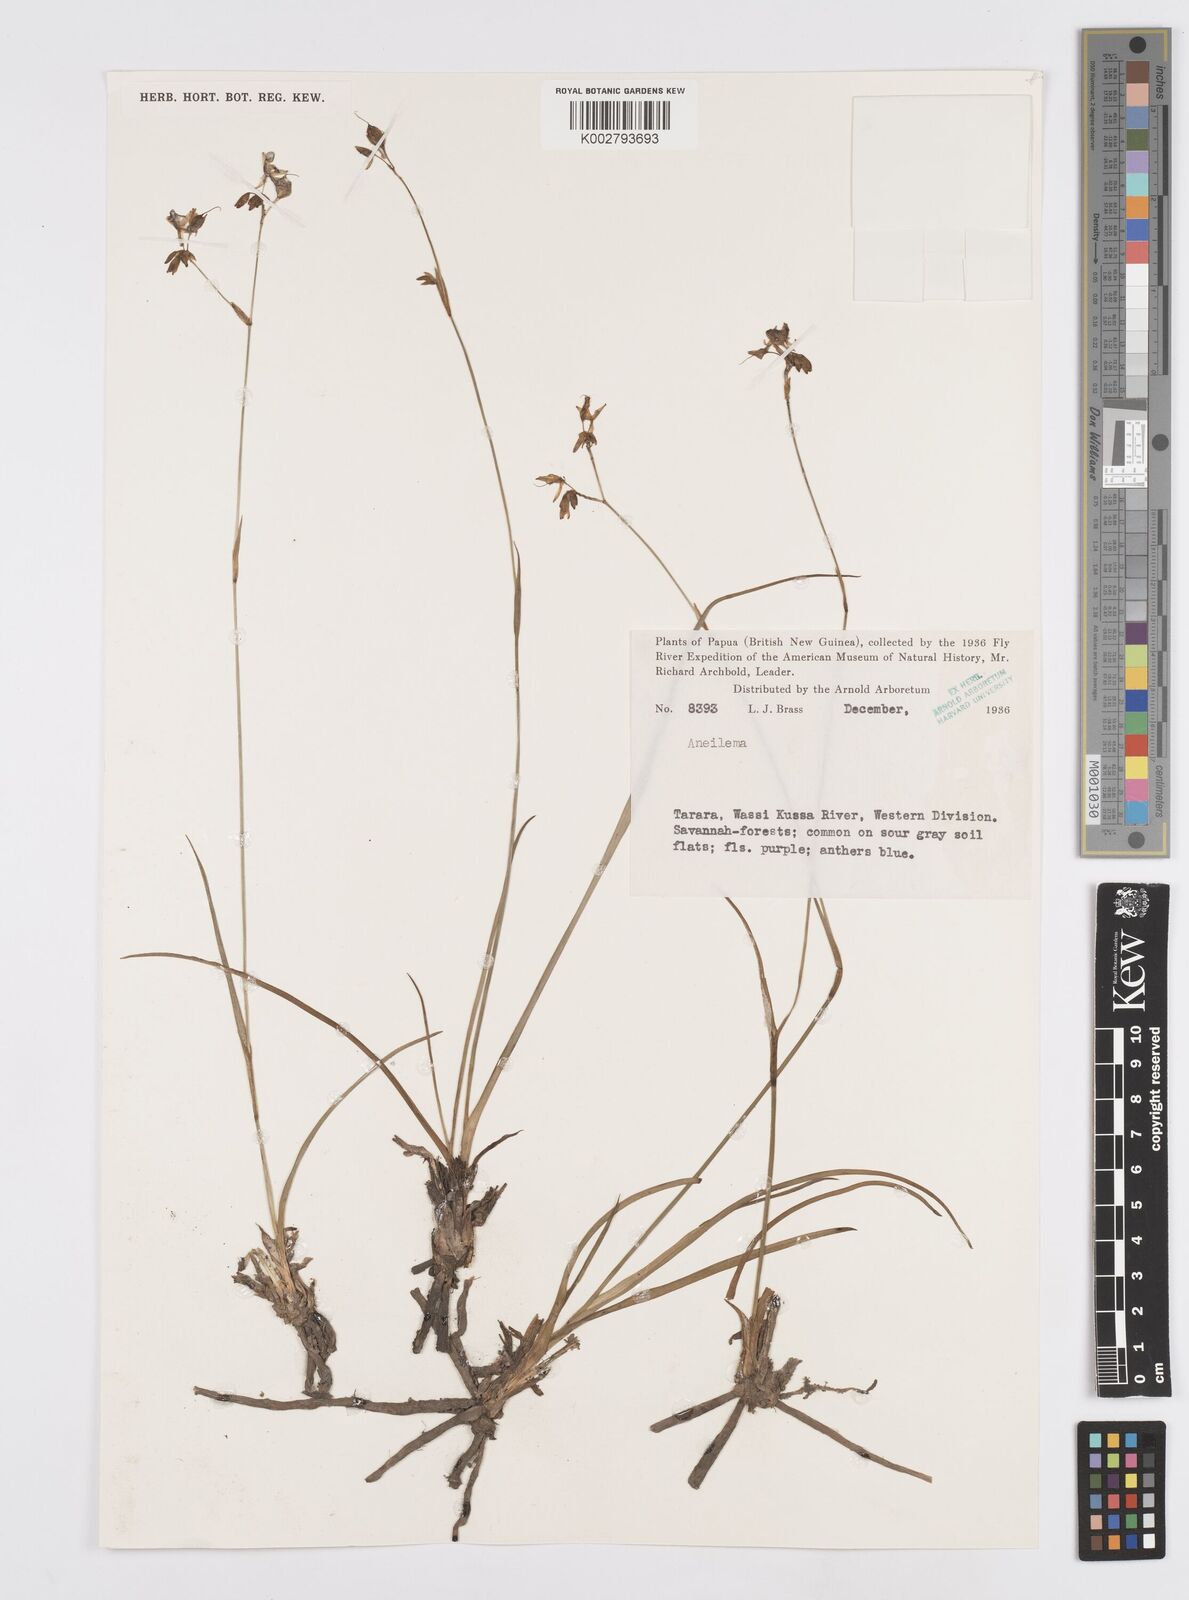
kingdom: Plantae
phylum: Tracheophyta
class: Liliopsida
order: Commelinales
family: Commelinaceae
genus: Murdannia
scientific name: Murdannia
